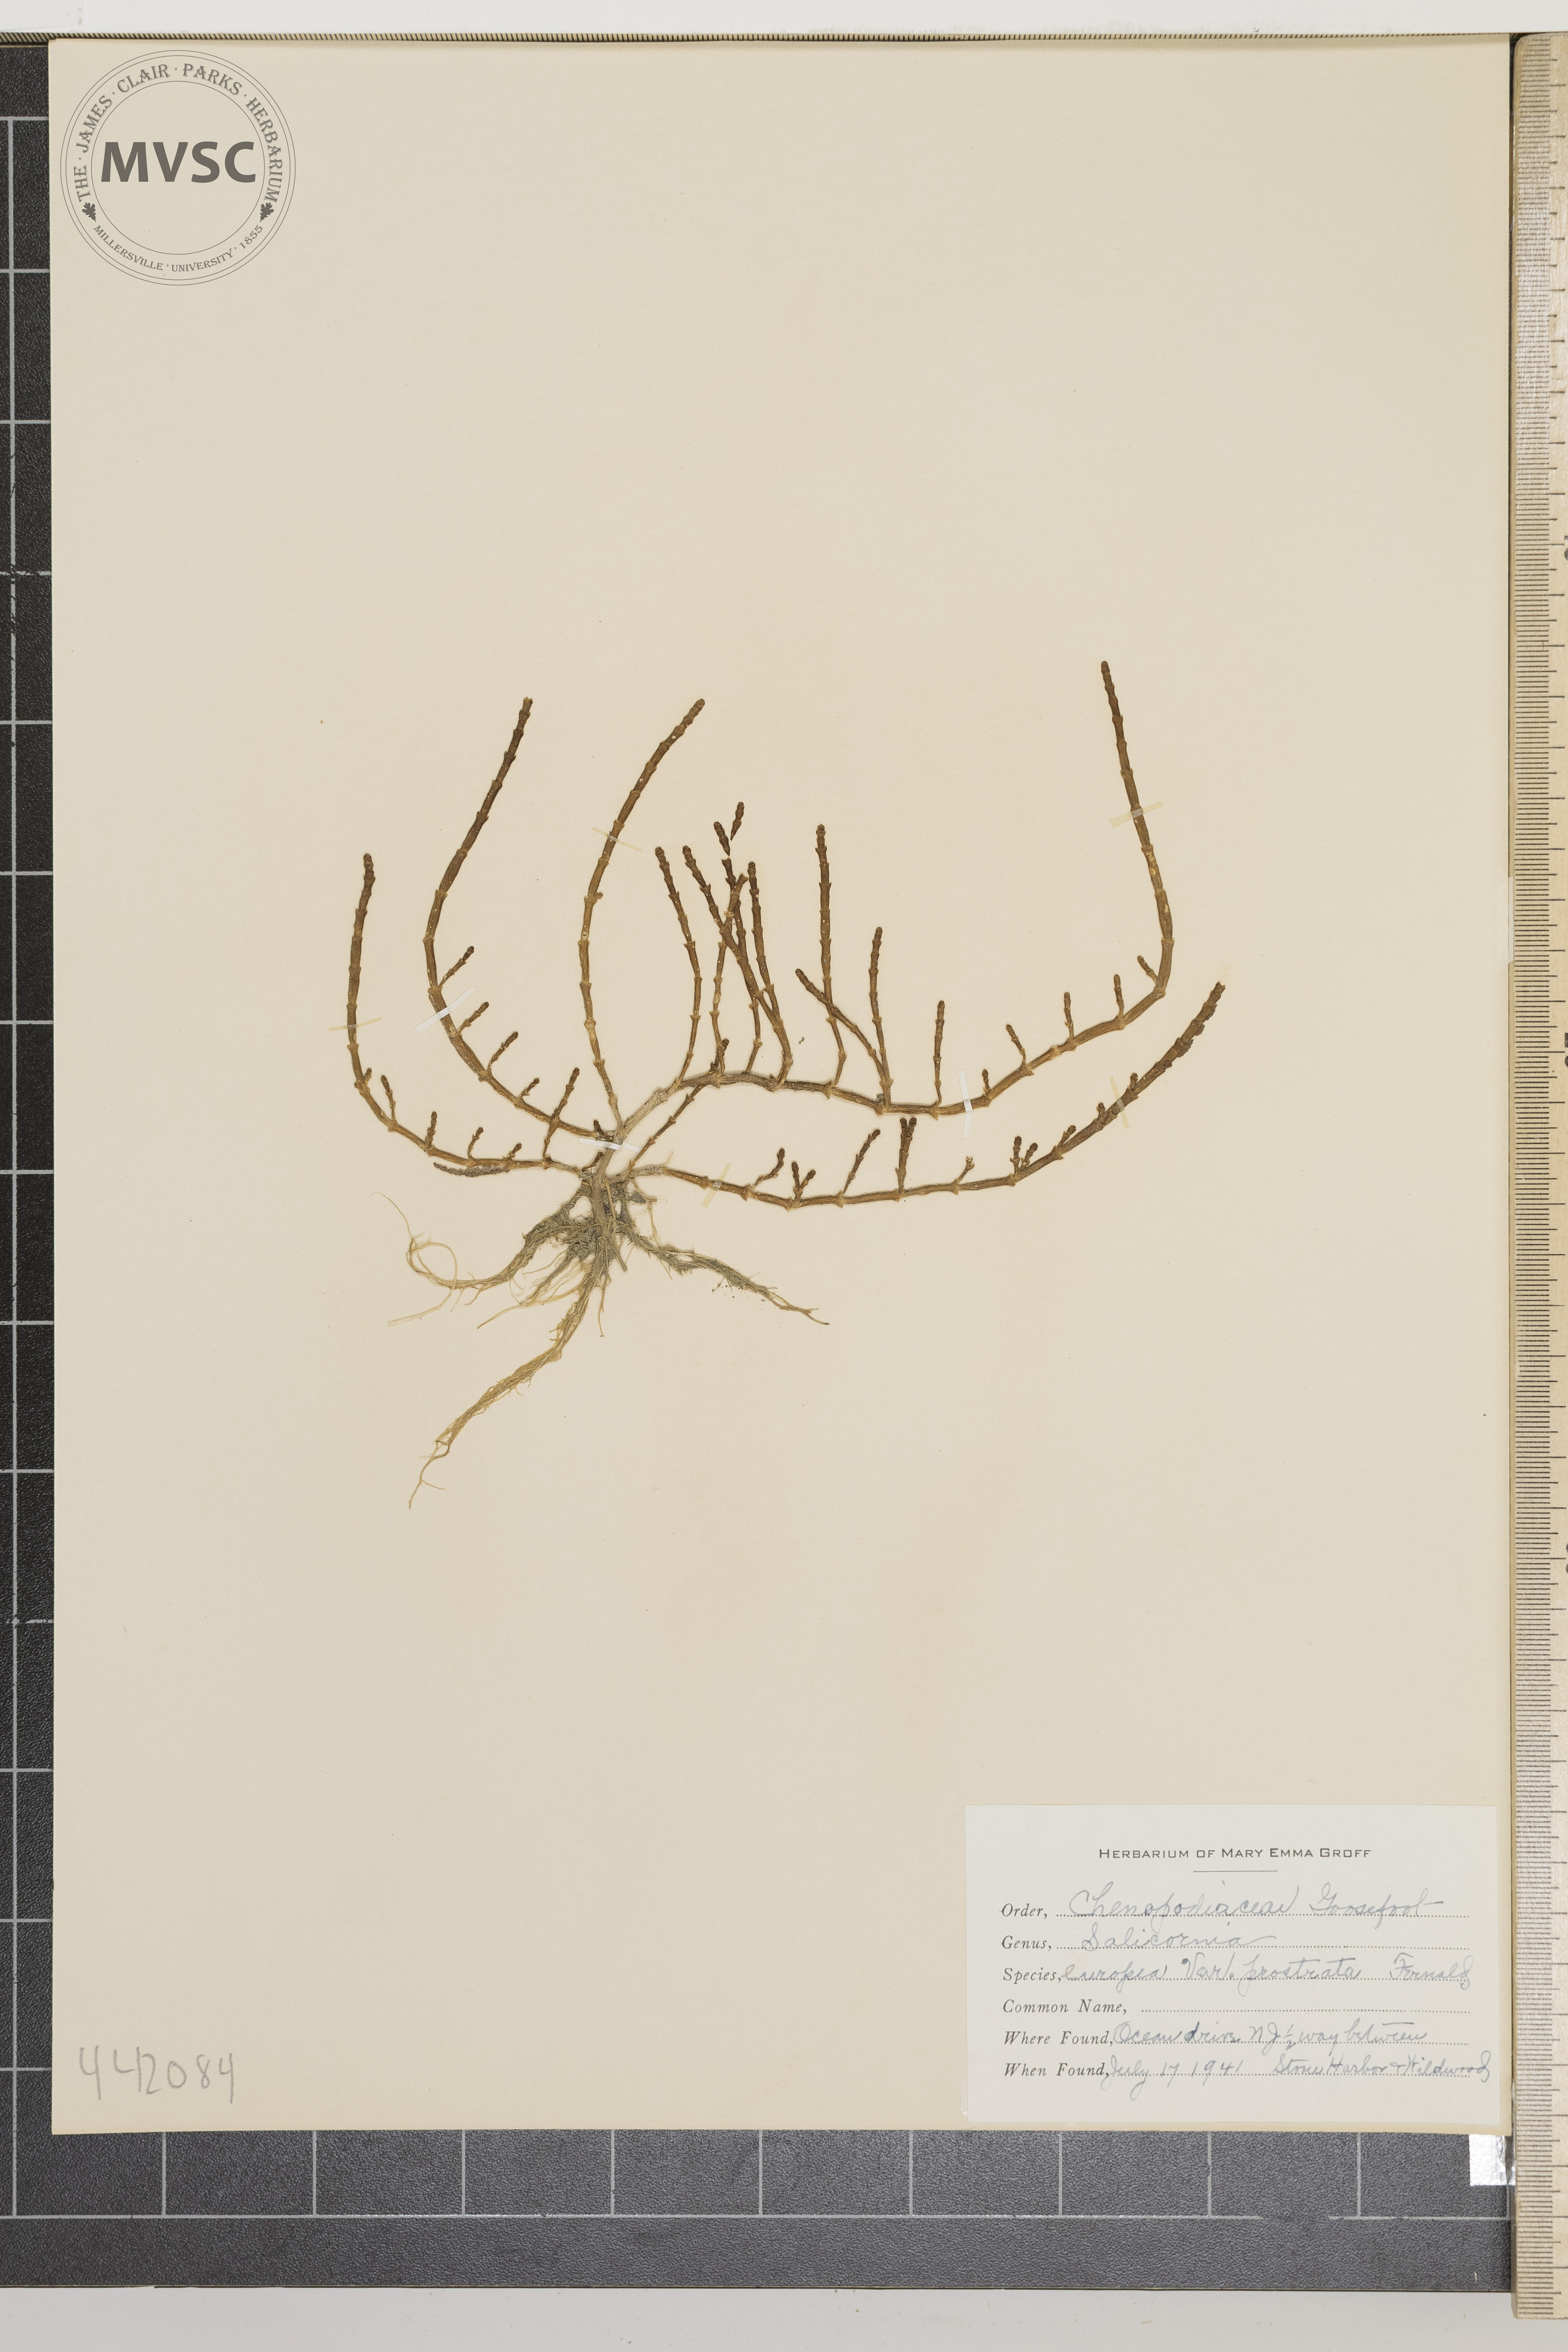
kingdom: Plantae
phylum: Tracheophyta
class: Magnoliopsida
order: Caryophyllales
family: Amaranthaceae
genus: Salicornia
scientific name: Salicornia europaea
